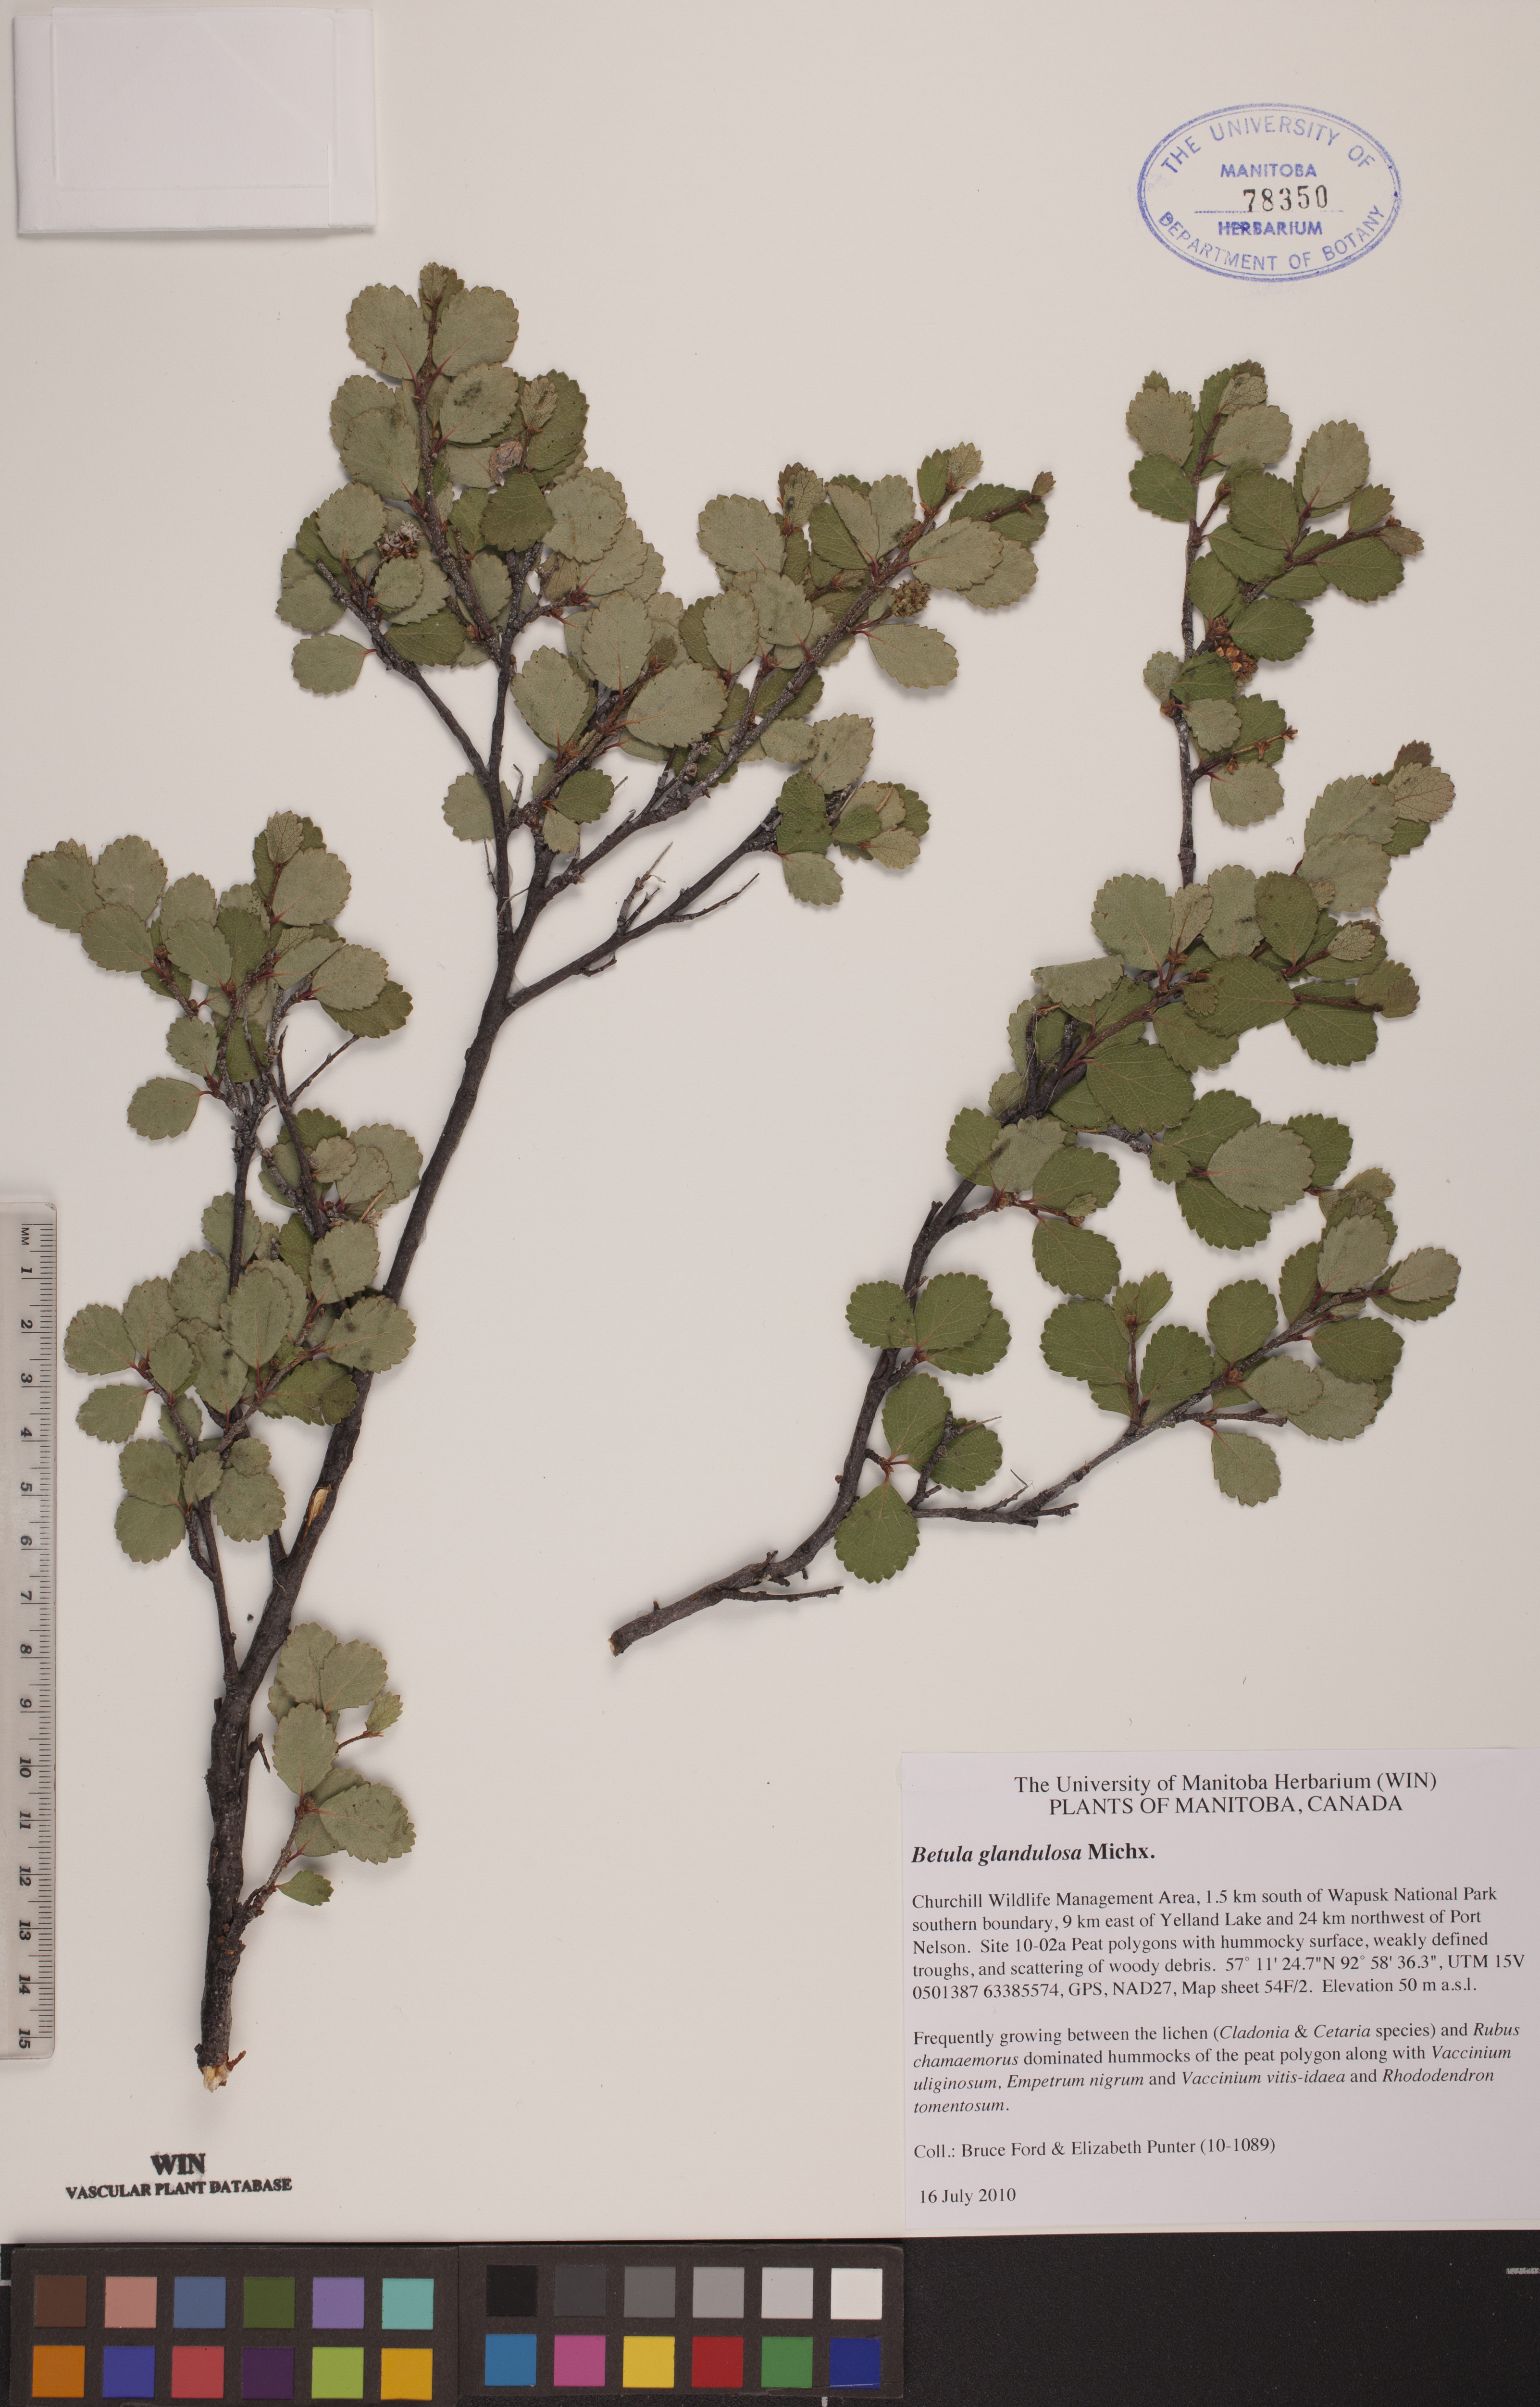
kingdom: Plantae
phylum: Tracheophyta
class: Magnoliopsida
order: Fagales
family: Betulaceae
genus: Betula
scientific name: Betula glandulosa
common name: Dwarf birch
